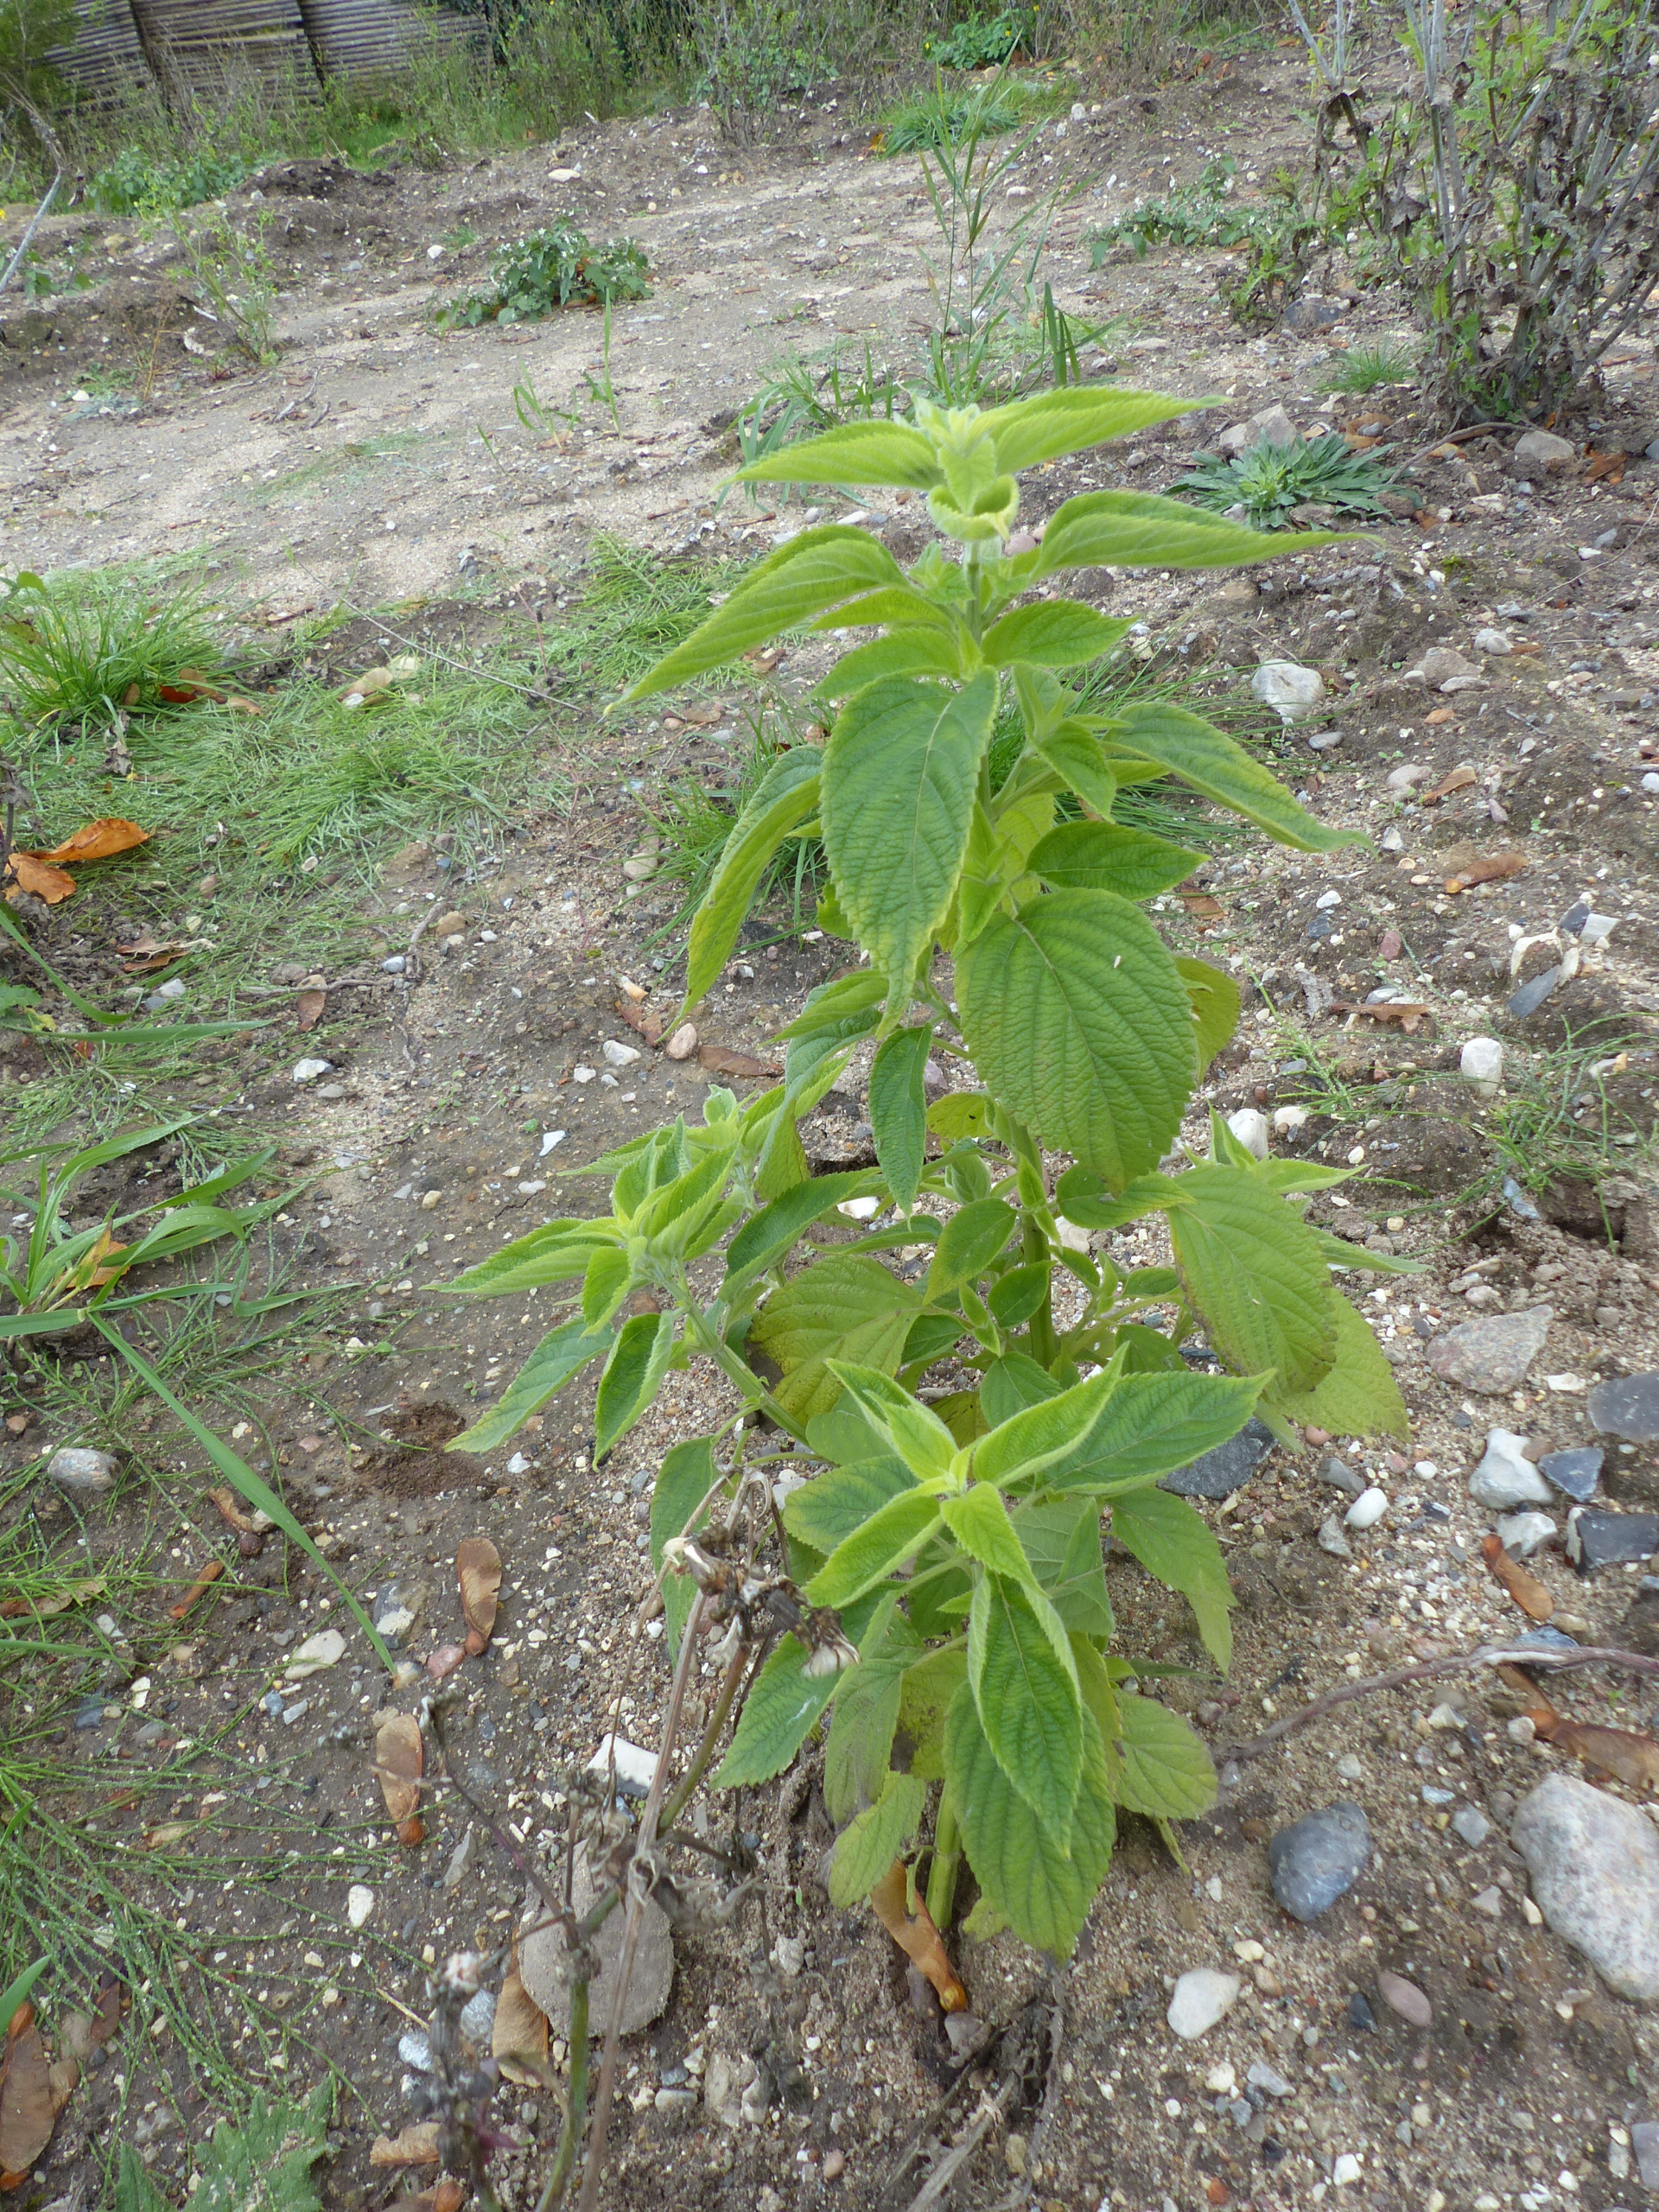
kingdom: Plantae
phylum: Tracheophyta
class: Magnoliopsida
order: Lamiales
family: Lamiaceae
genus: Salvia
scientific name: Salvia hispanica
